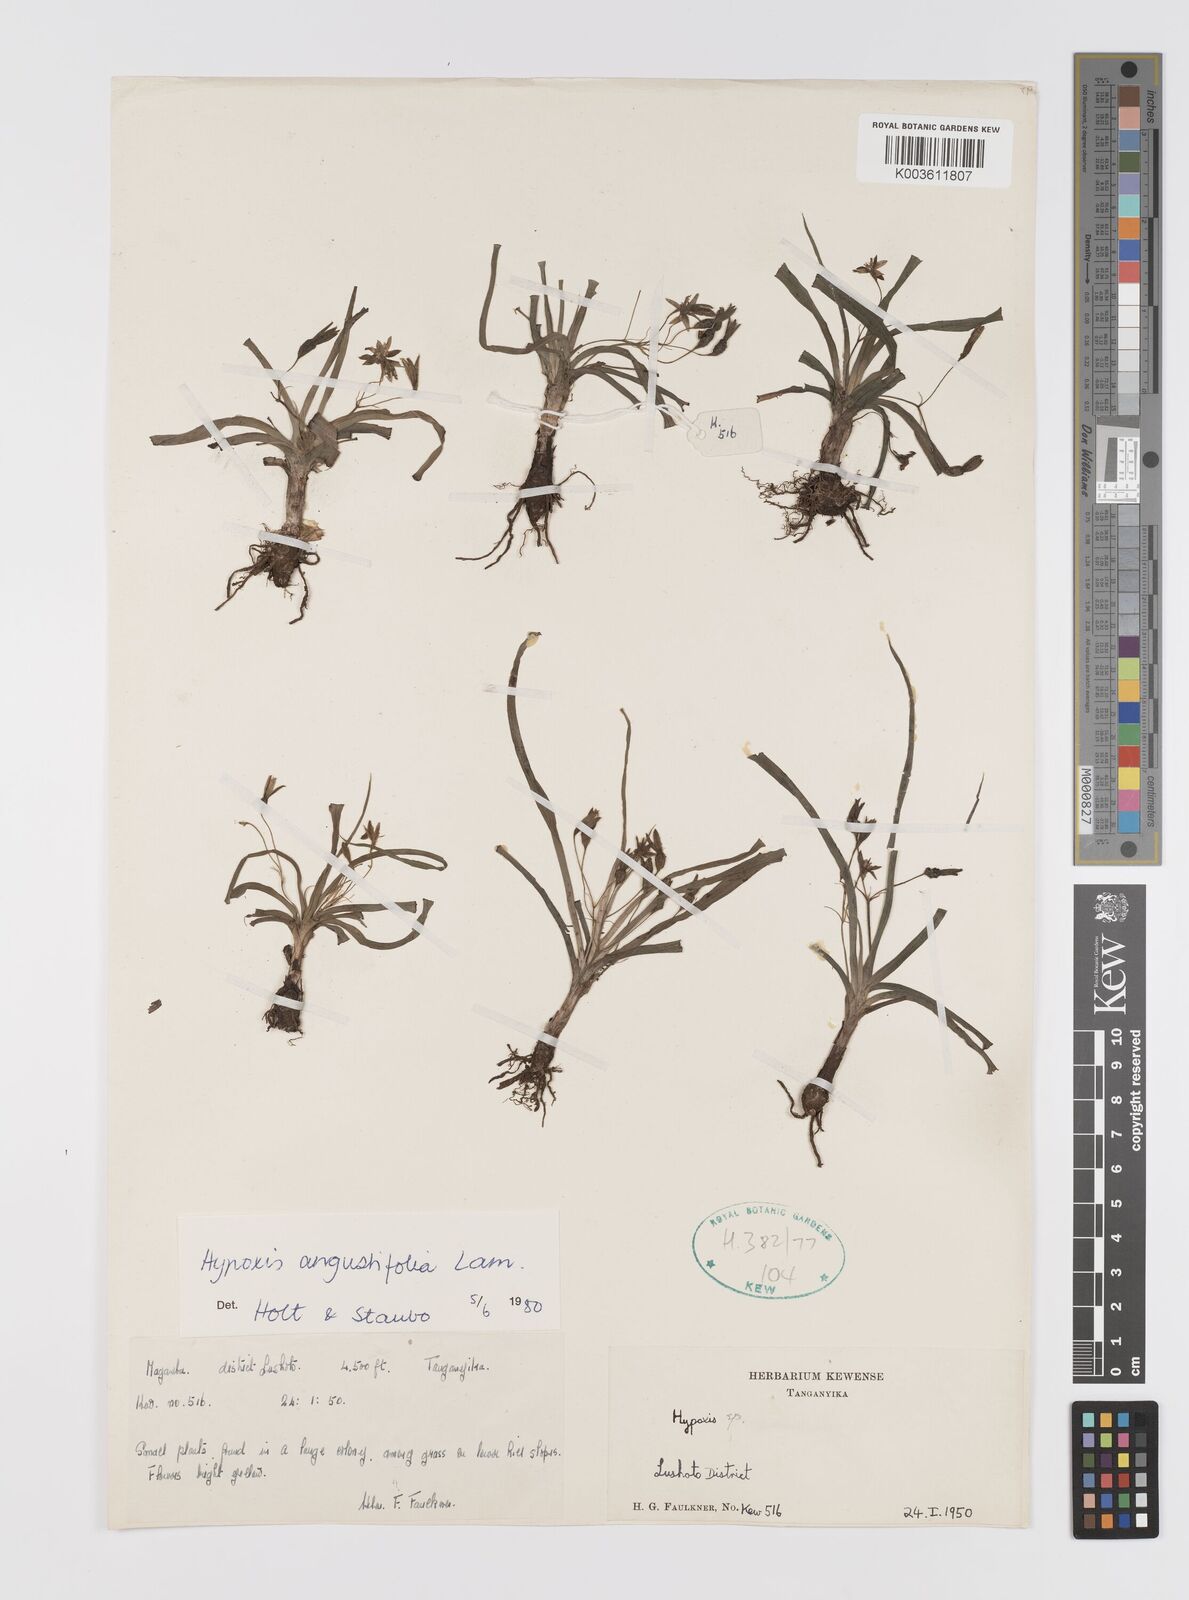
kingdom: Plantae
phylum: Tracheophyta
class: Liliopsida
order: Asparagales
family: Hypoxidaceae
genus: Hypoxis
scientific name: Hypoxis angustifolia
